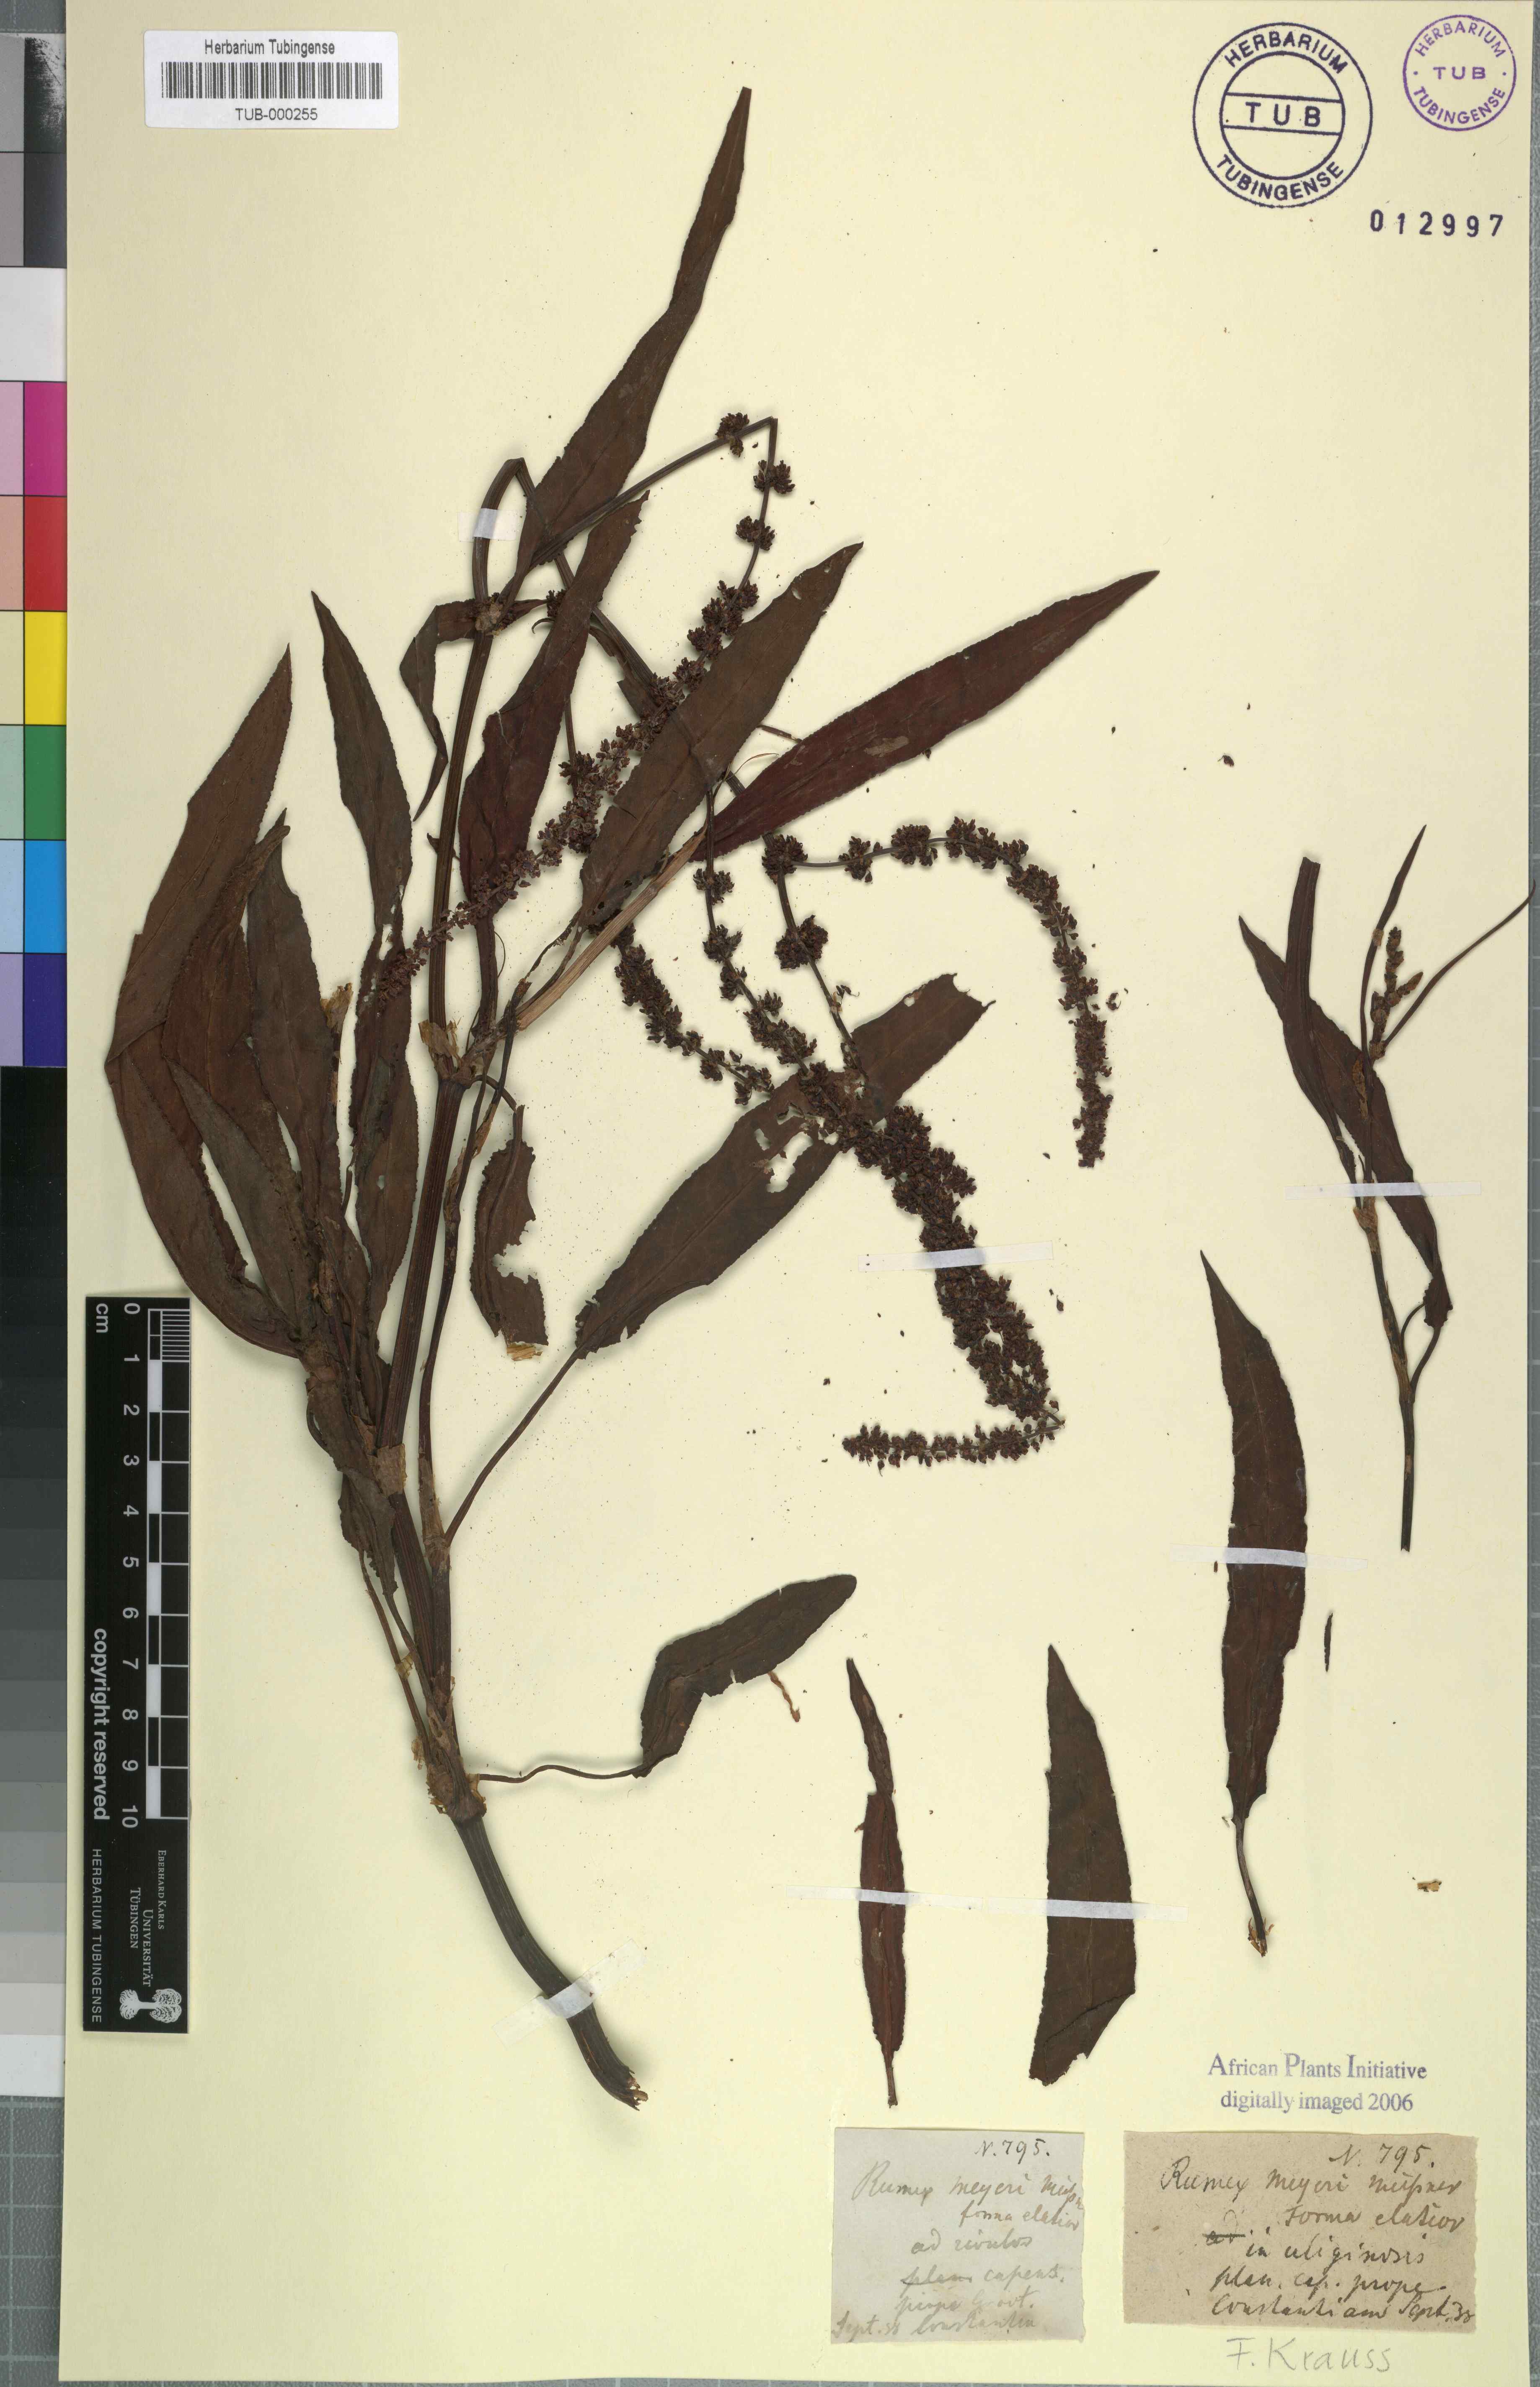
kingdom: Plantae
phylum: Tracheophyta
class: Magnoliopsida
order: Caryophyllales
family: Polygonaceae
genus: Rumex
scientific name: Rumex lanceolatus
